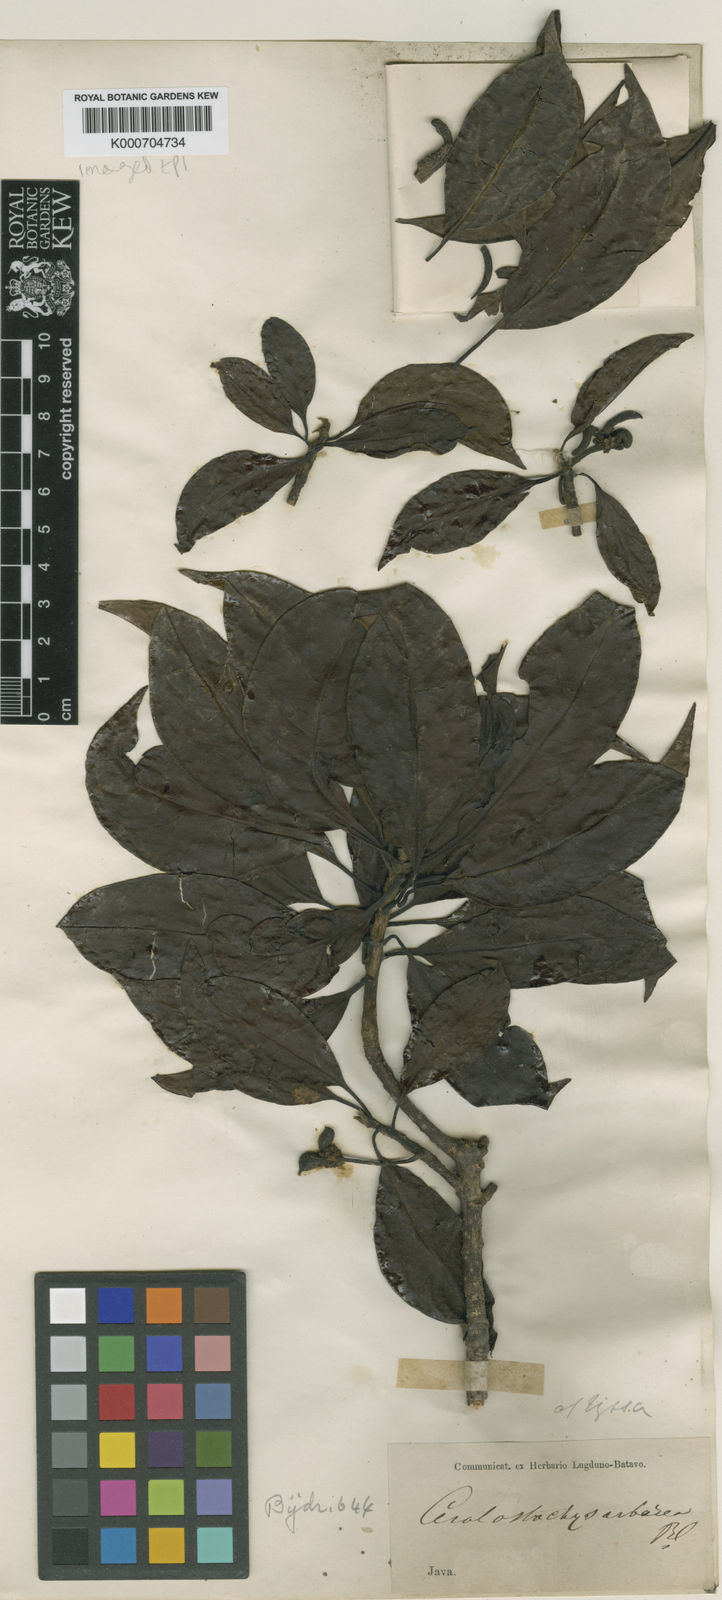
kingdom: Plantae
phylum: Tracheophyta
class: Magnoliopsida
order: Cornales
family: Nyssaceae
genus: Nyssa
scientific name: Nyssa javanica
